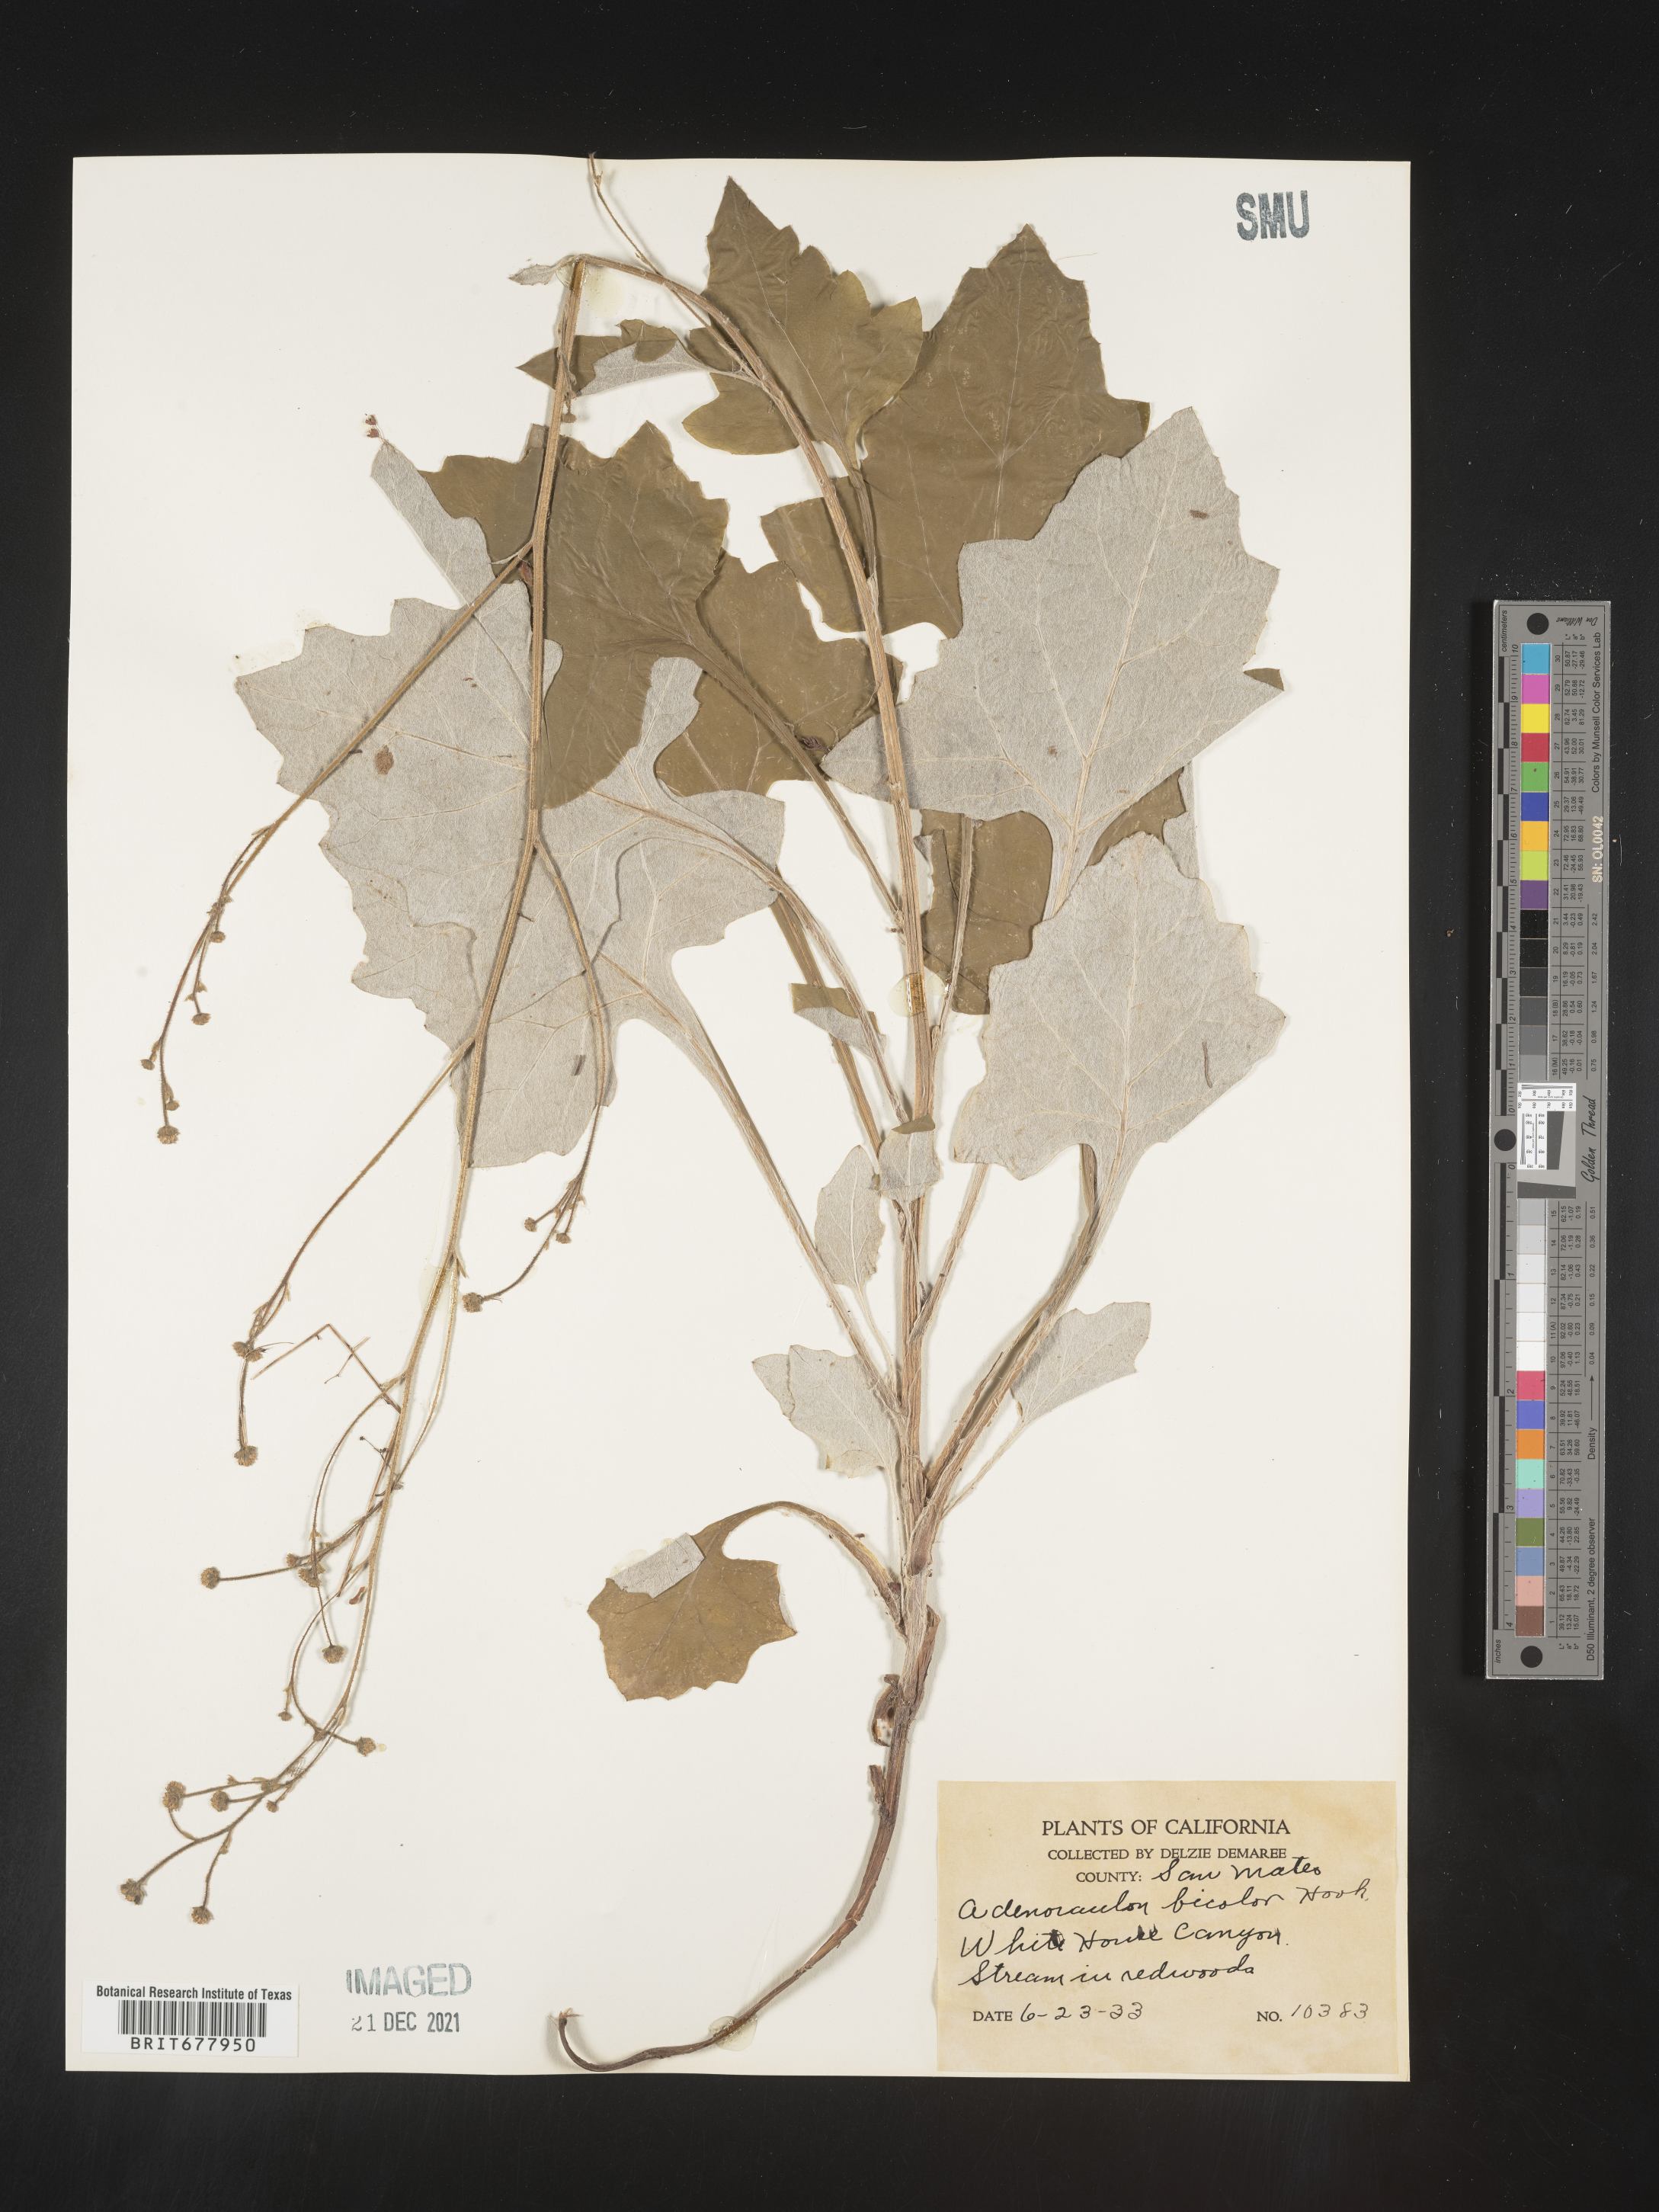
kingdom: Plantae
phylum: Tracheophyta
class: Magnoliopsida
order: Asterales
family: Asteraceae
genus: Adenocaulon
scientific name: Adenocaulon
